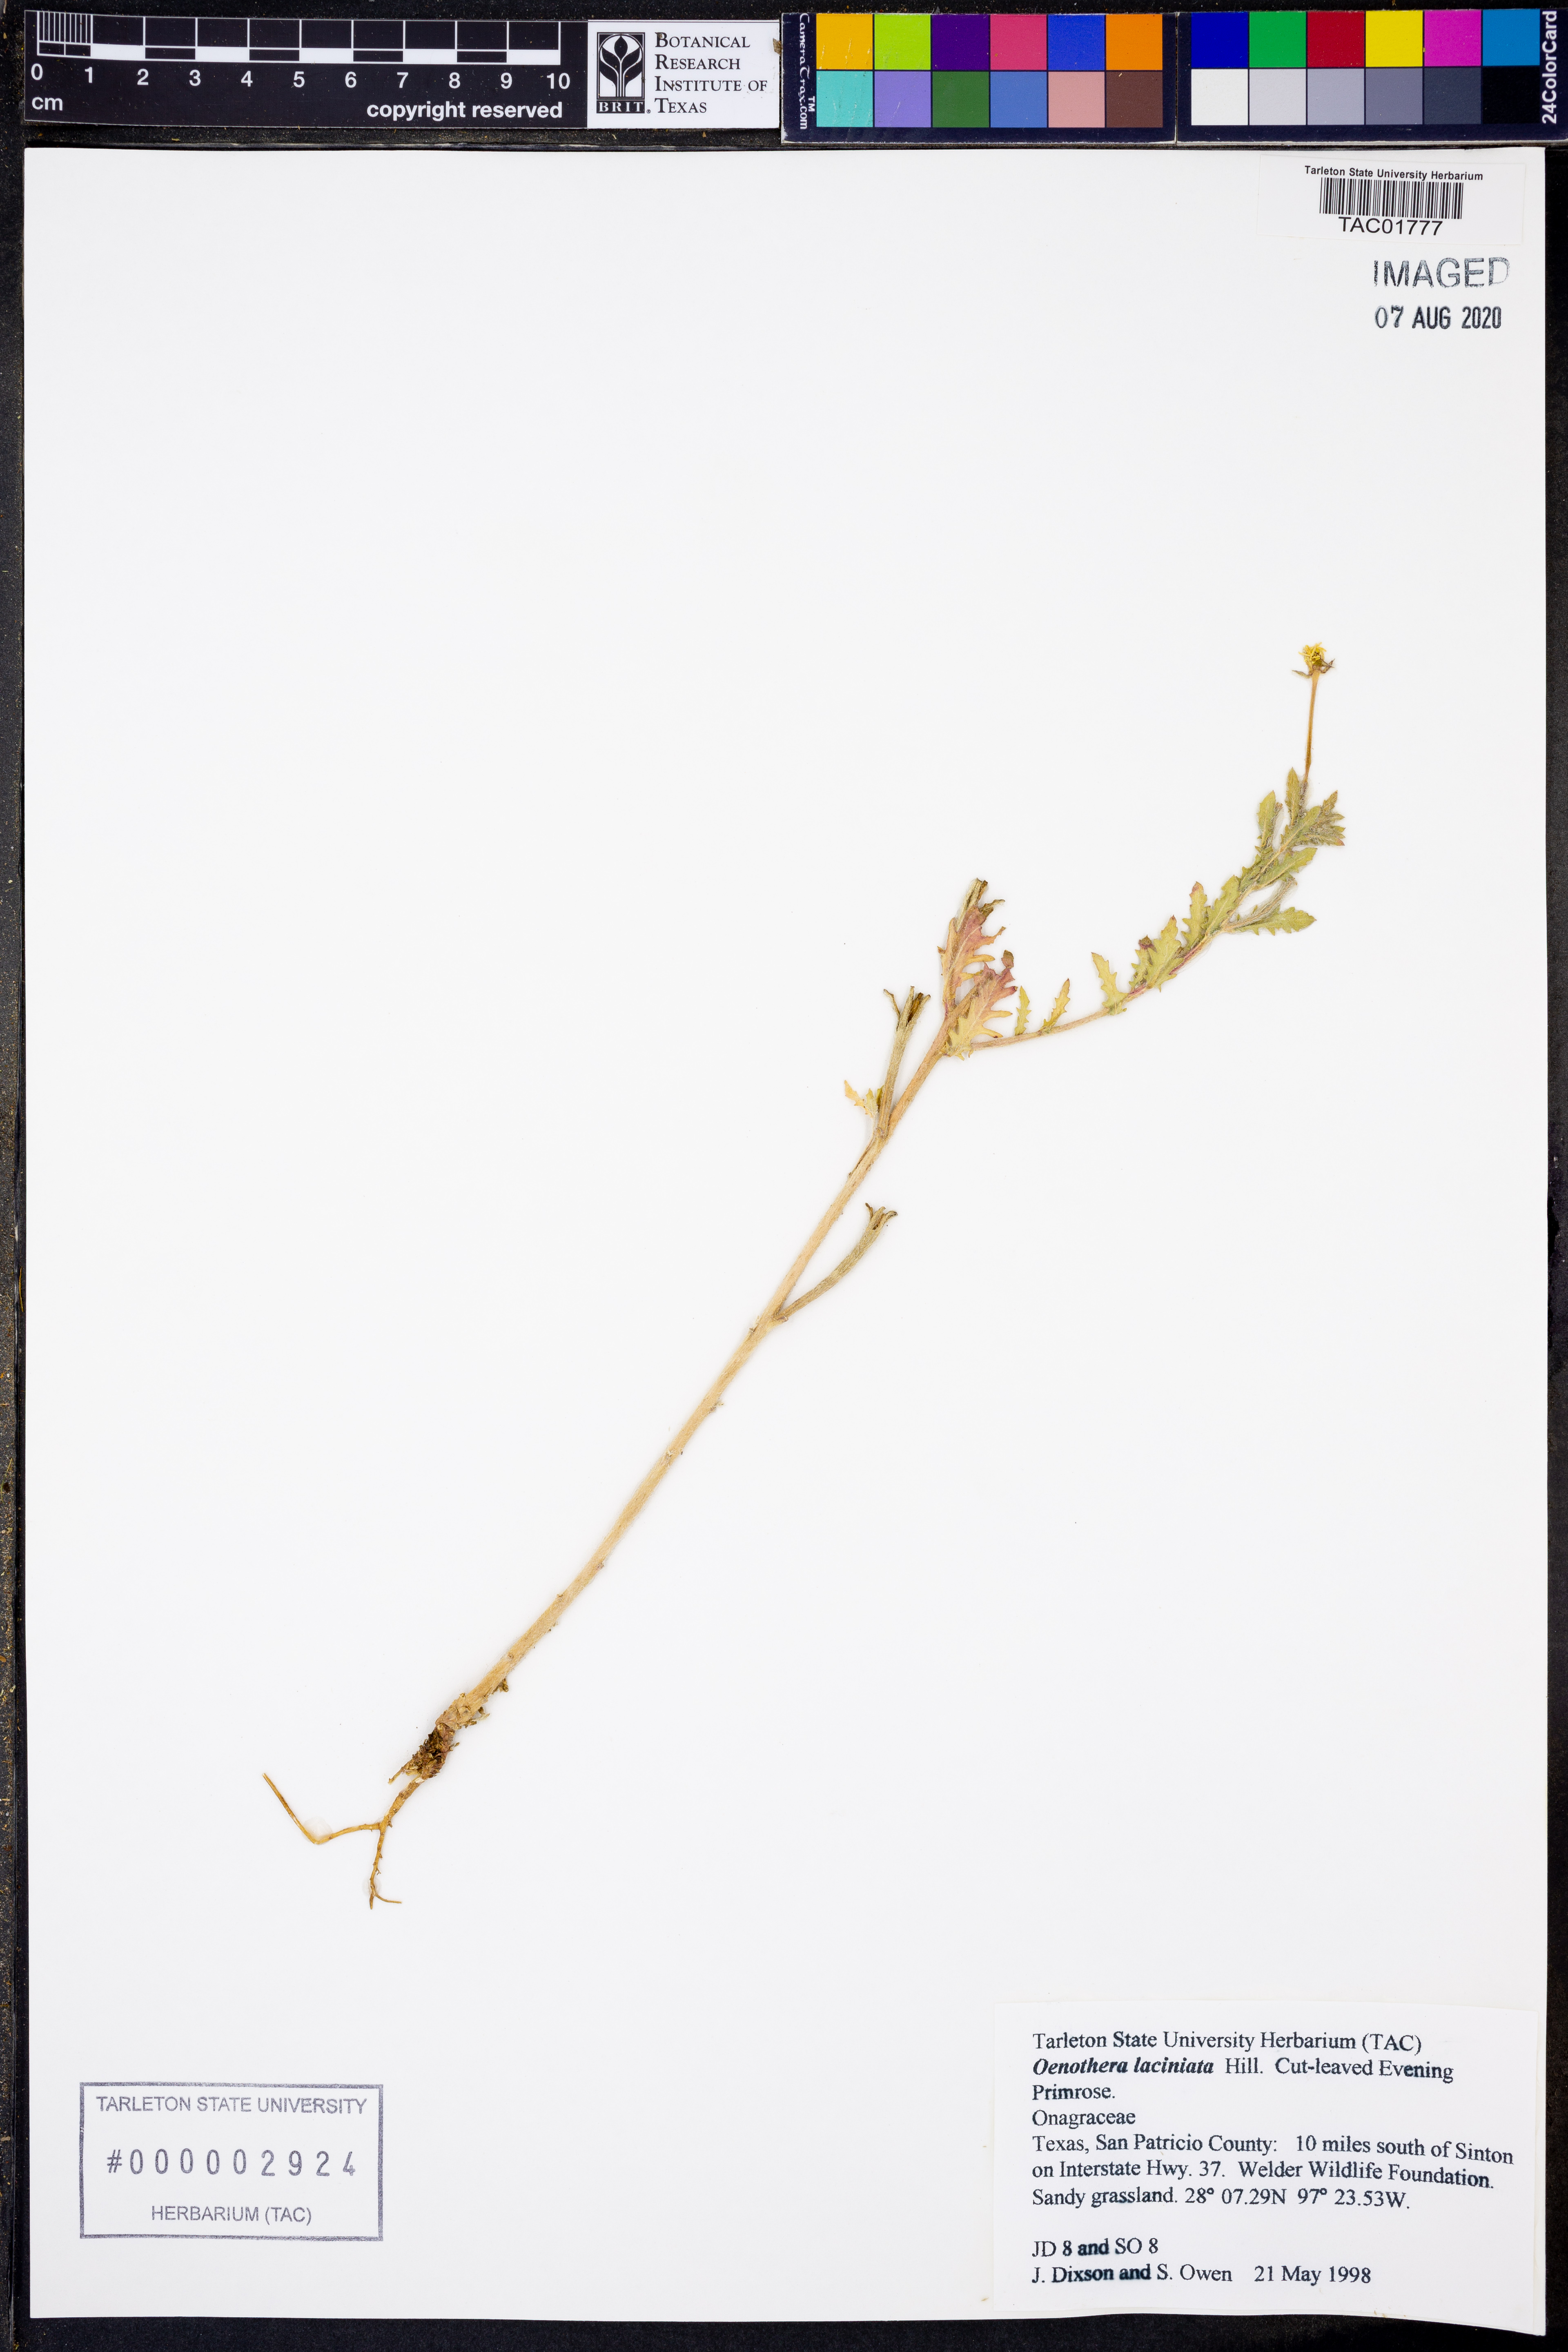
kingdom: Plantae
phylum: Tracheophyta
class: Magnoliopsida
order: Myrtales
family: Onagraceae
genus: Oenothera
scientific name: Oenothera laciniata
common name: Cut-leaved evening-primrose
